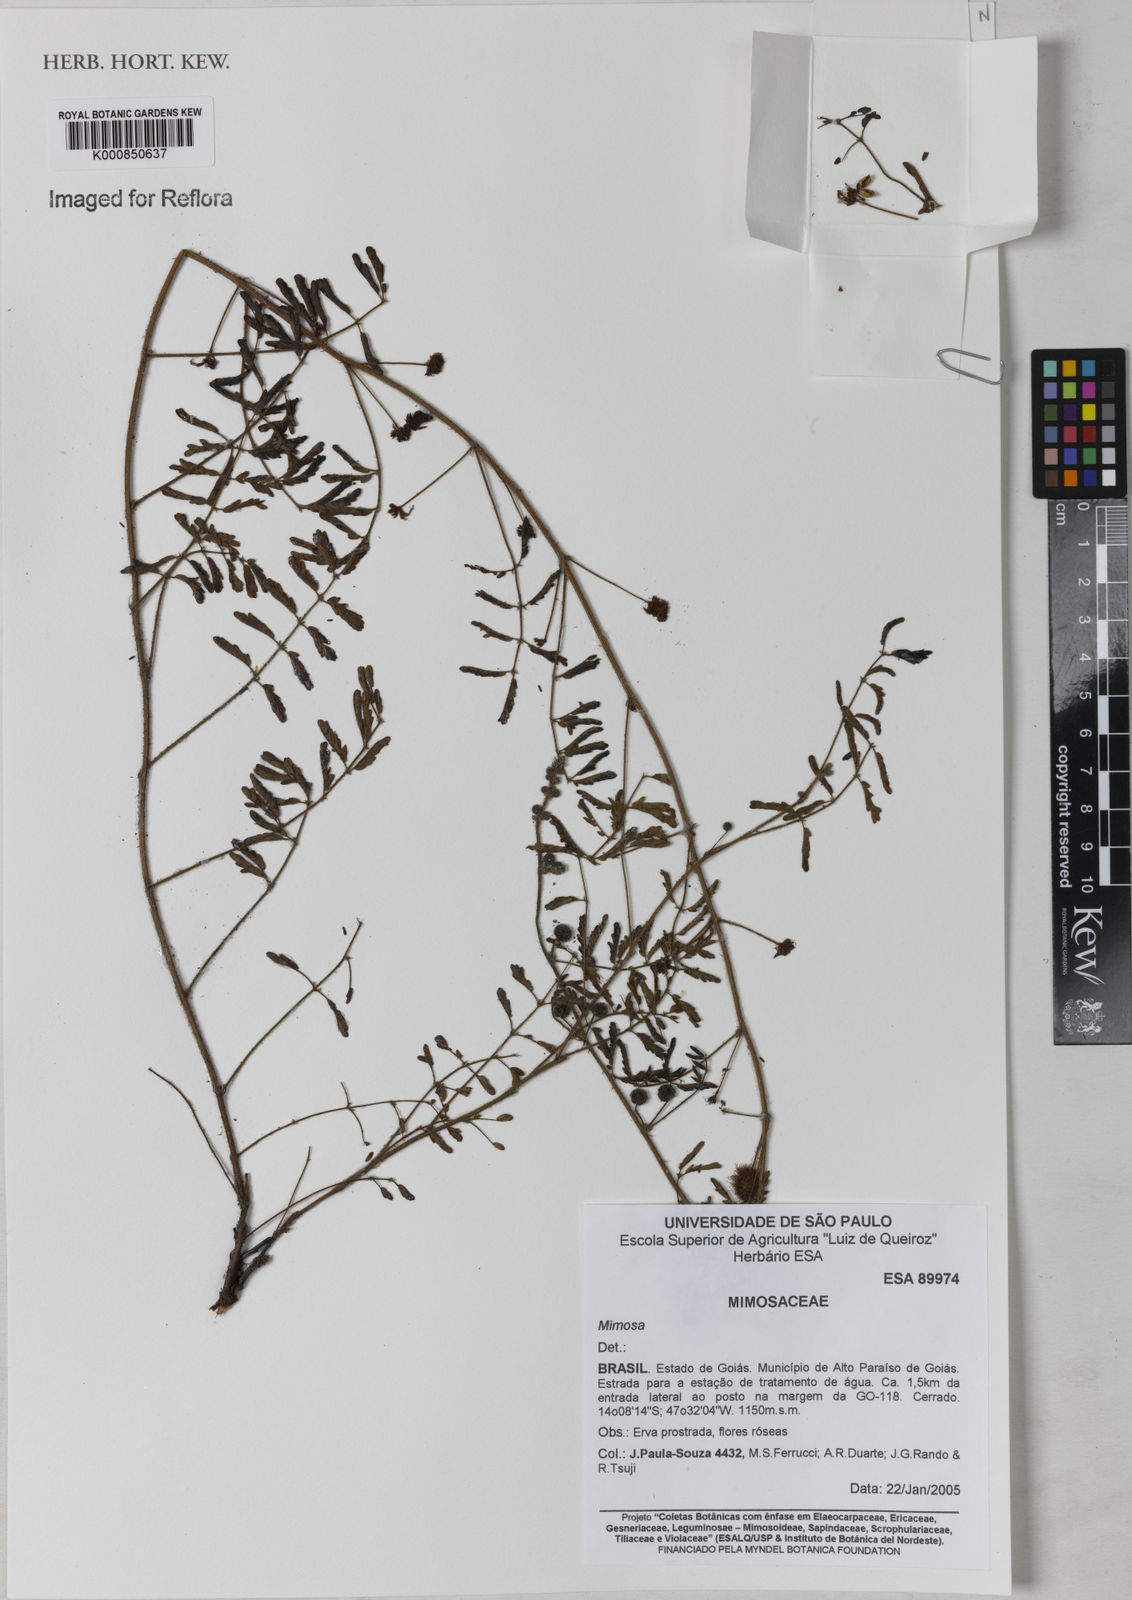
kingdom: Plantae
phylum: Tracheophyta
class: Magnoliopsida
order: Fabales
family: Fabaceae
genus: Mimosa
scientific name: Mimosa gracilis
